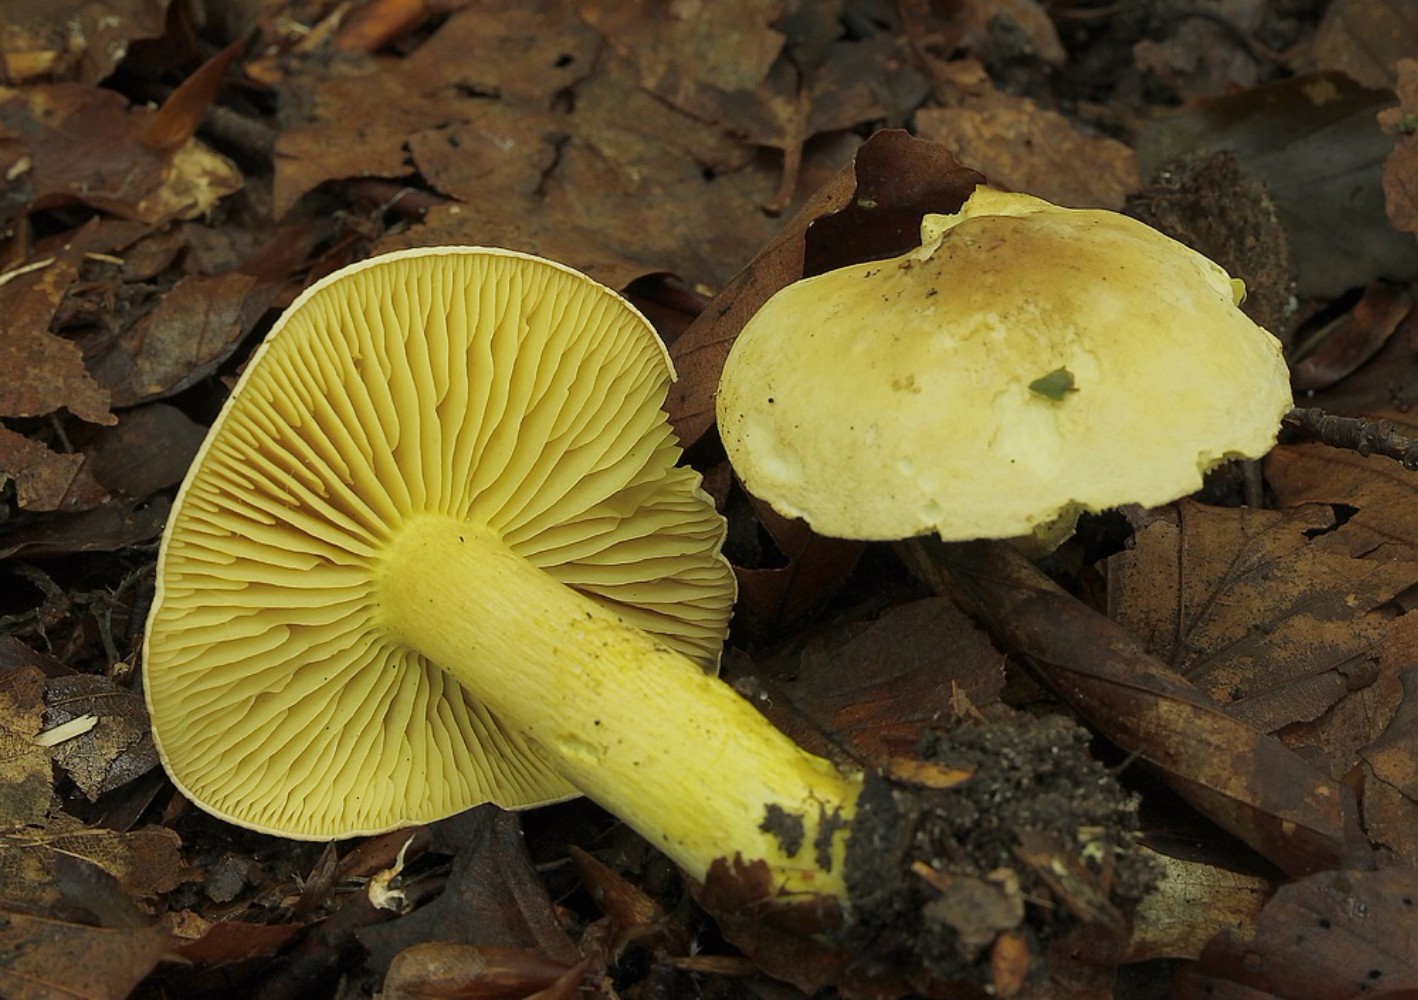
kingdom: Fungi
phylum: Basidiomycota
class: Agaricomycetes
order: Agaricales
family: Tricholomataceae
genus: Tricholoma
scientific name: Tricholoma sulphureum
